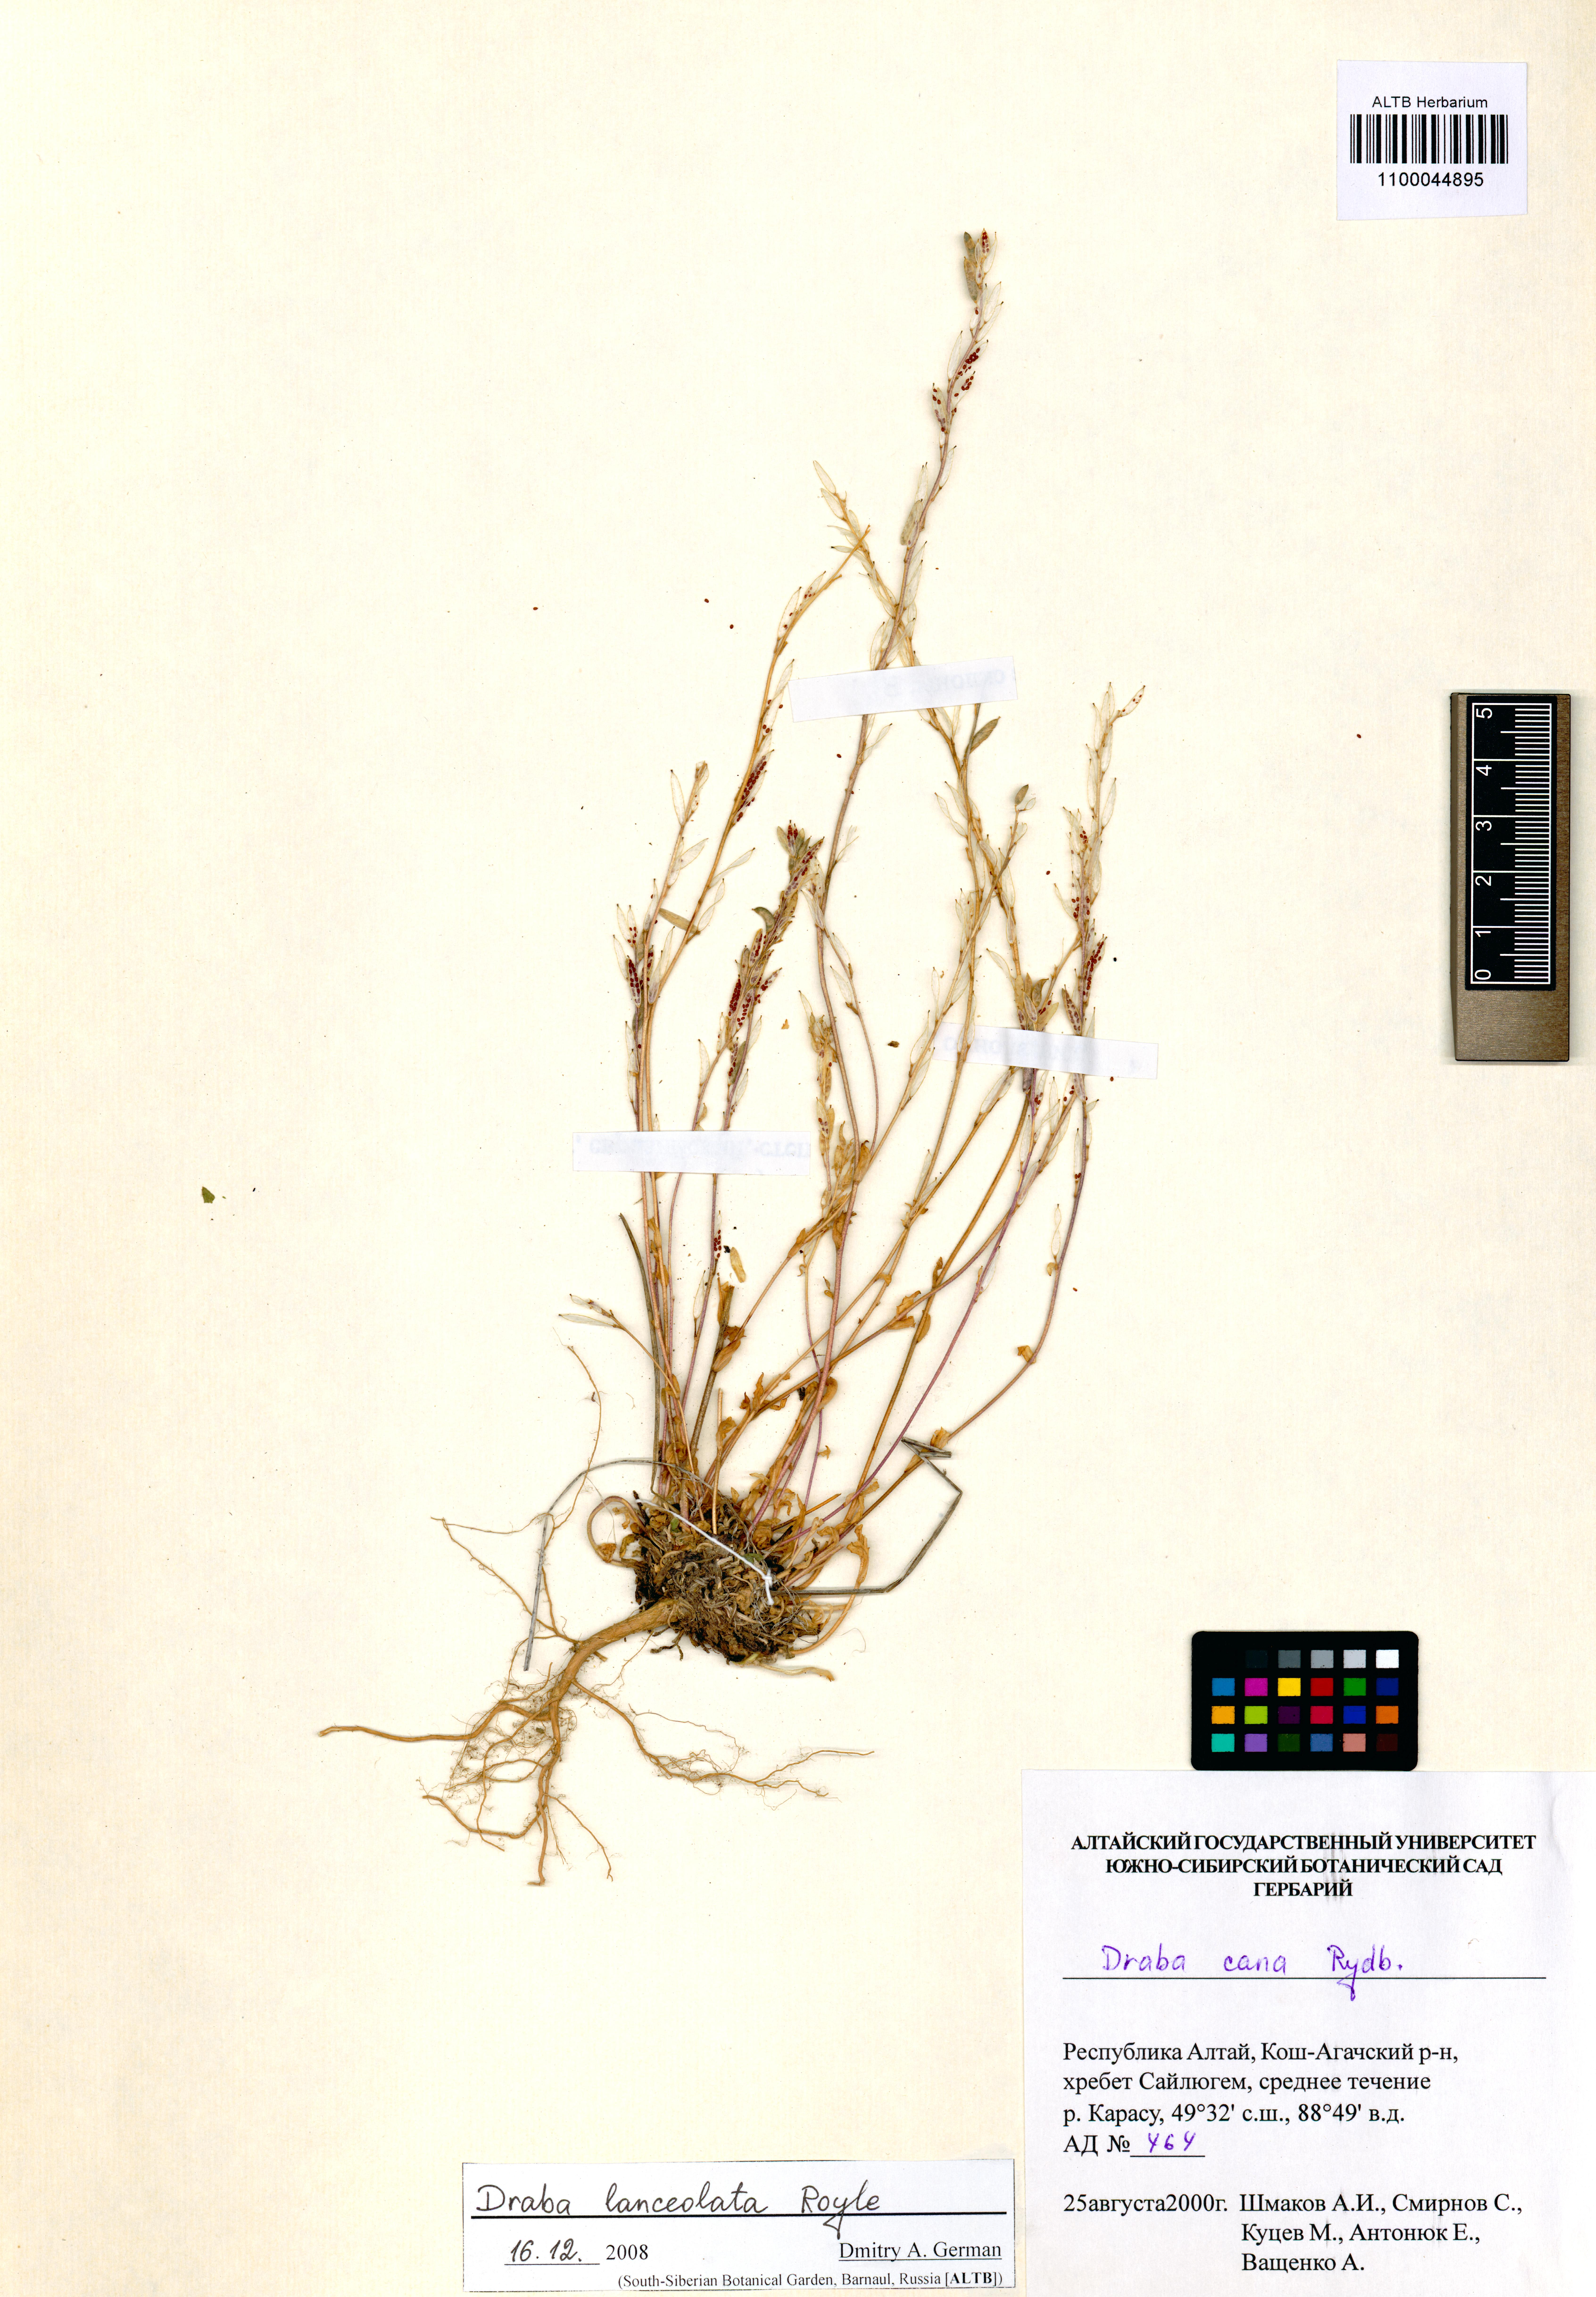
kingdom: Plantae
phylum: Tracheophyta
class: Magnoliopsida
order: Brassicales
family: Brassicaceae
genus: Draba
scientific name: Draba lanceolata
